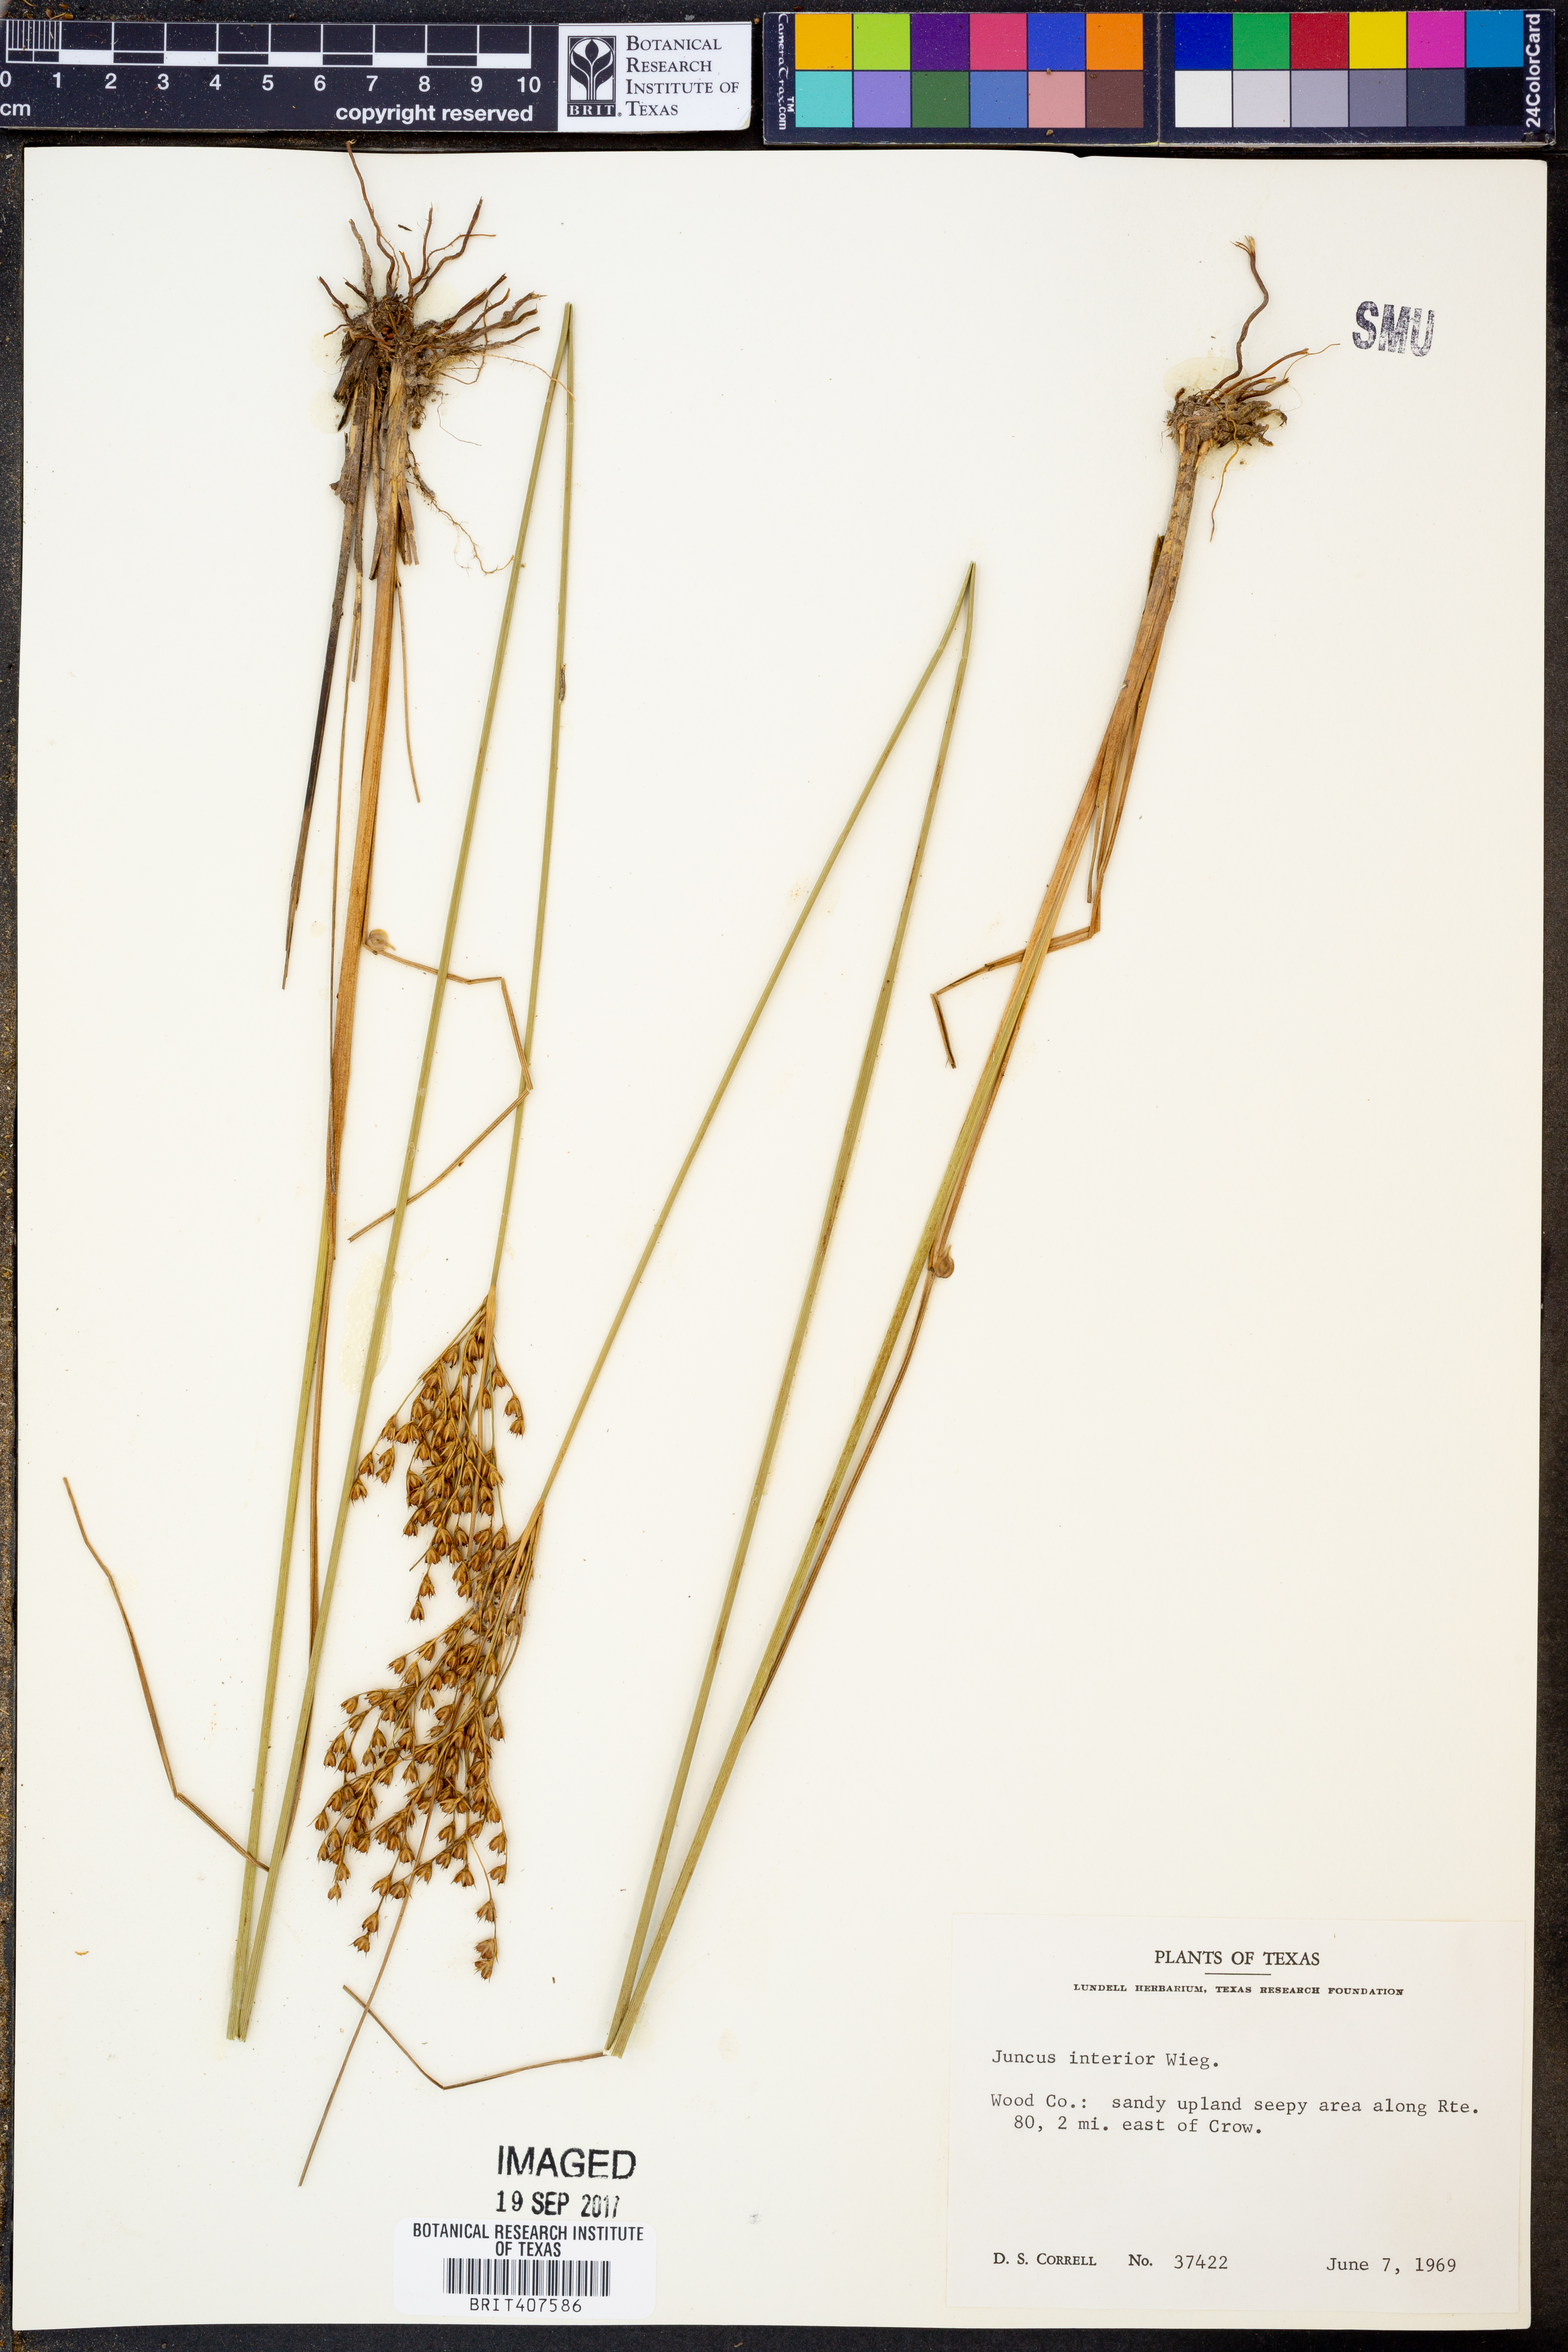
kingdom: Plantae
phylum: Tracheophyta
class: Liliopsida
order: Poales
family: Juncaceae
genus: Juncus
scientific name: Juncus interior
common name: Interior rush
